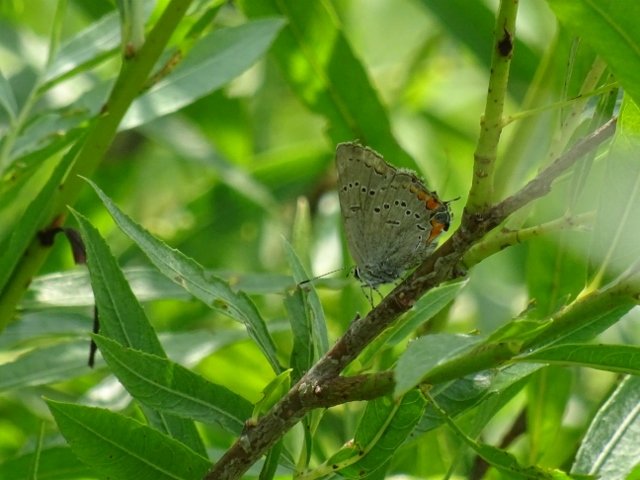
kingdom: Animalia
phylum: Arthropoda
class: Insecta
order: Lepidoptera
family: Lycaenidae
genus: Strymon
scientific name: Strymon acadica
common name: Acadian Hairstreak
